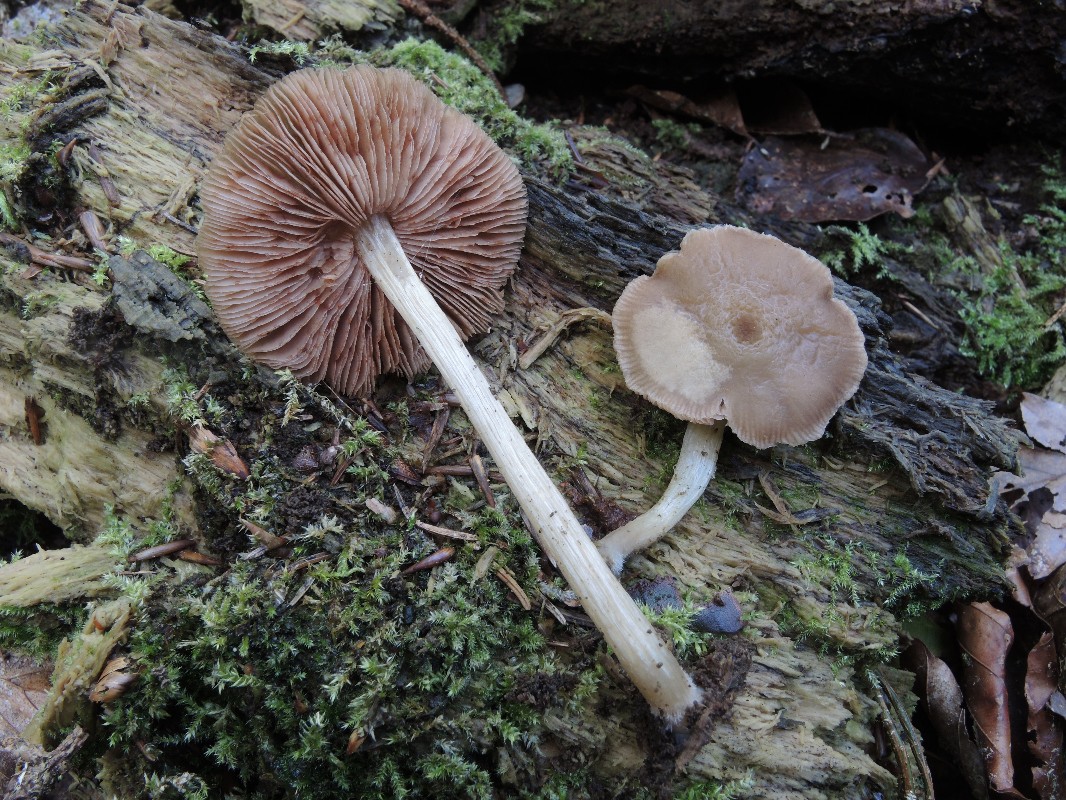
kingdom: Fungi
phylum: Basidiomycota
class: Agaricomycetes
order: Agaricales
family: Pluteaceae
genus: Pluteus
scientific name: Pluteus
